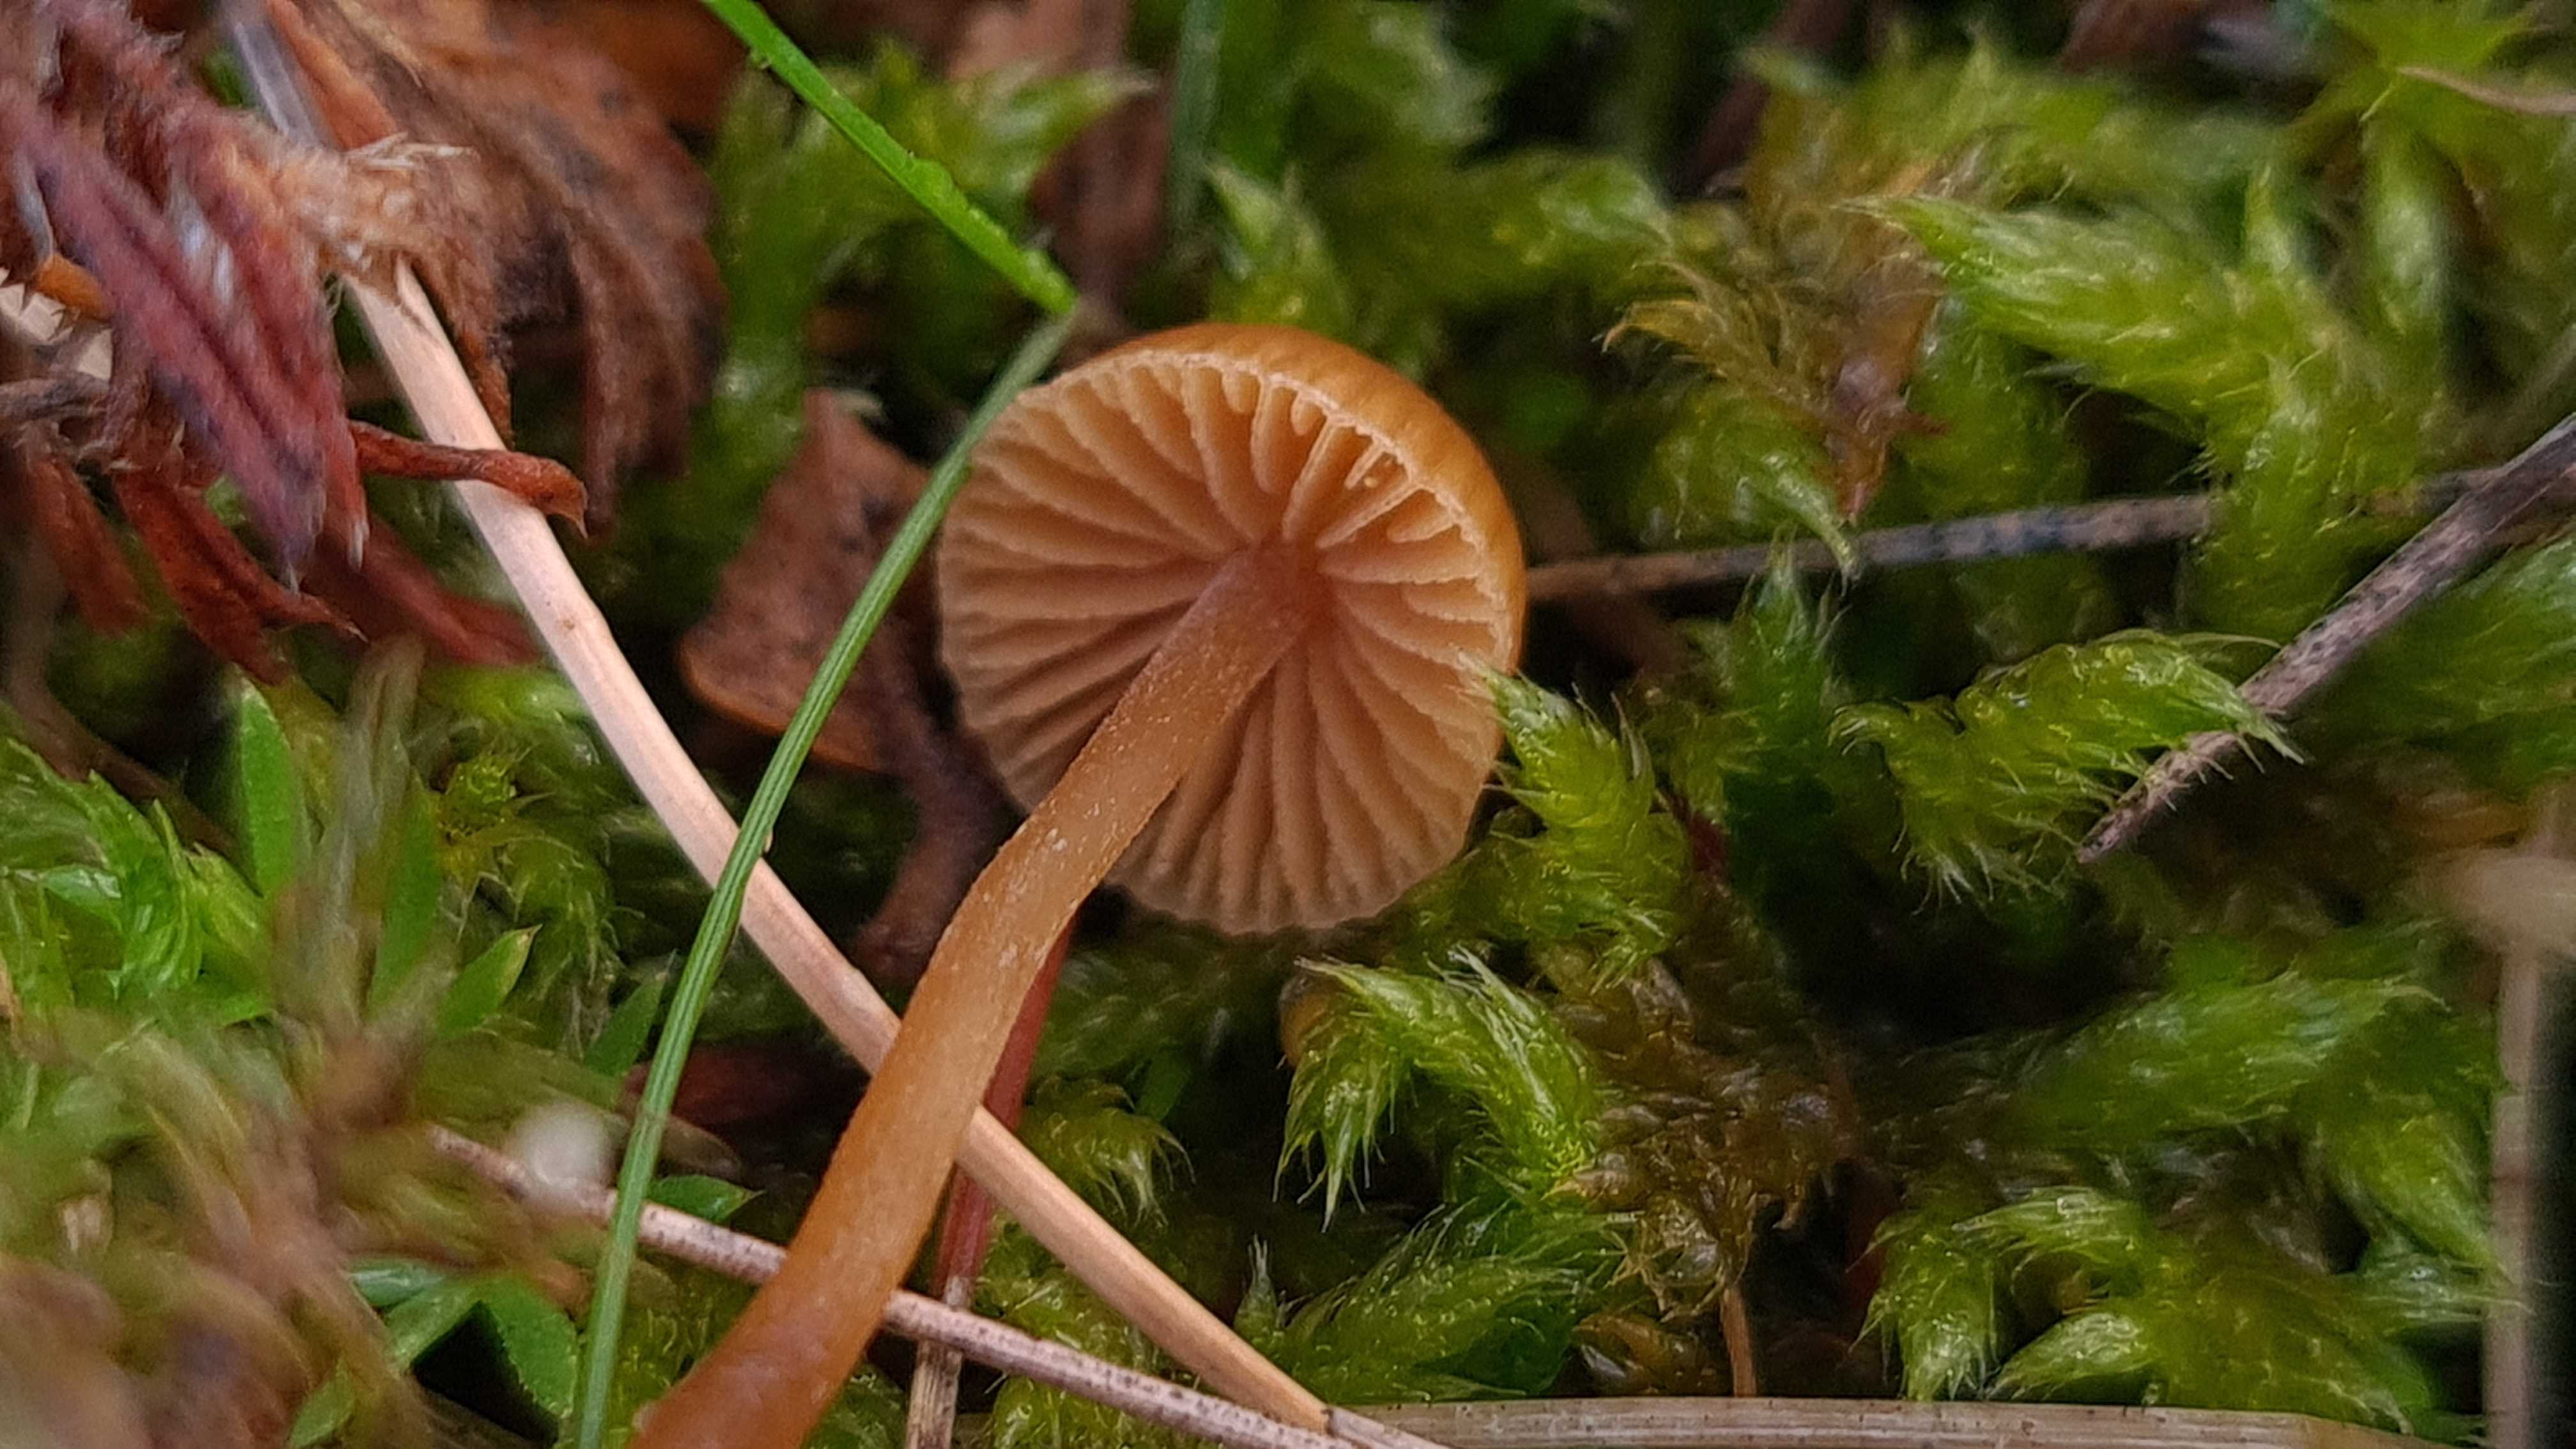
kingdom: Fungi
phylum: Basidiomycota
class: Agaricomycetes
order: Agaricales
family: Hymenogastraceae
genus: Galerina
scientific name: Galerina
